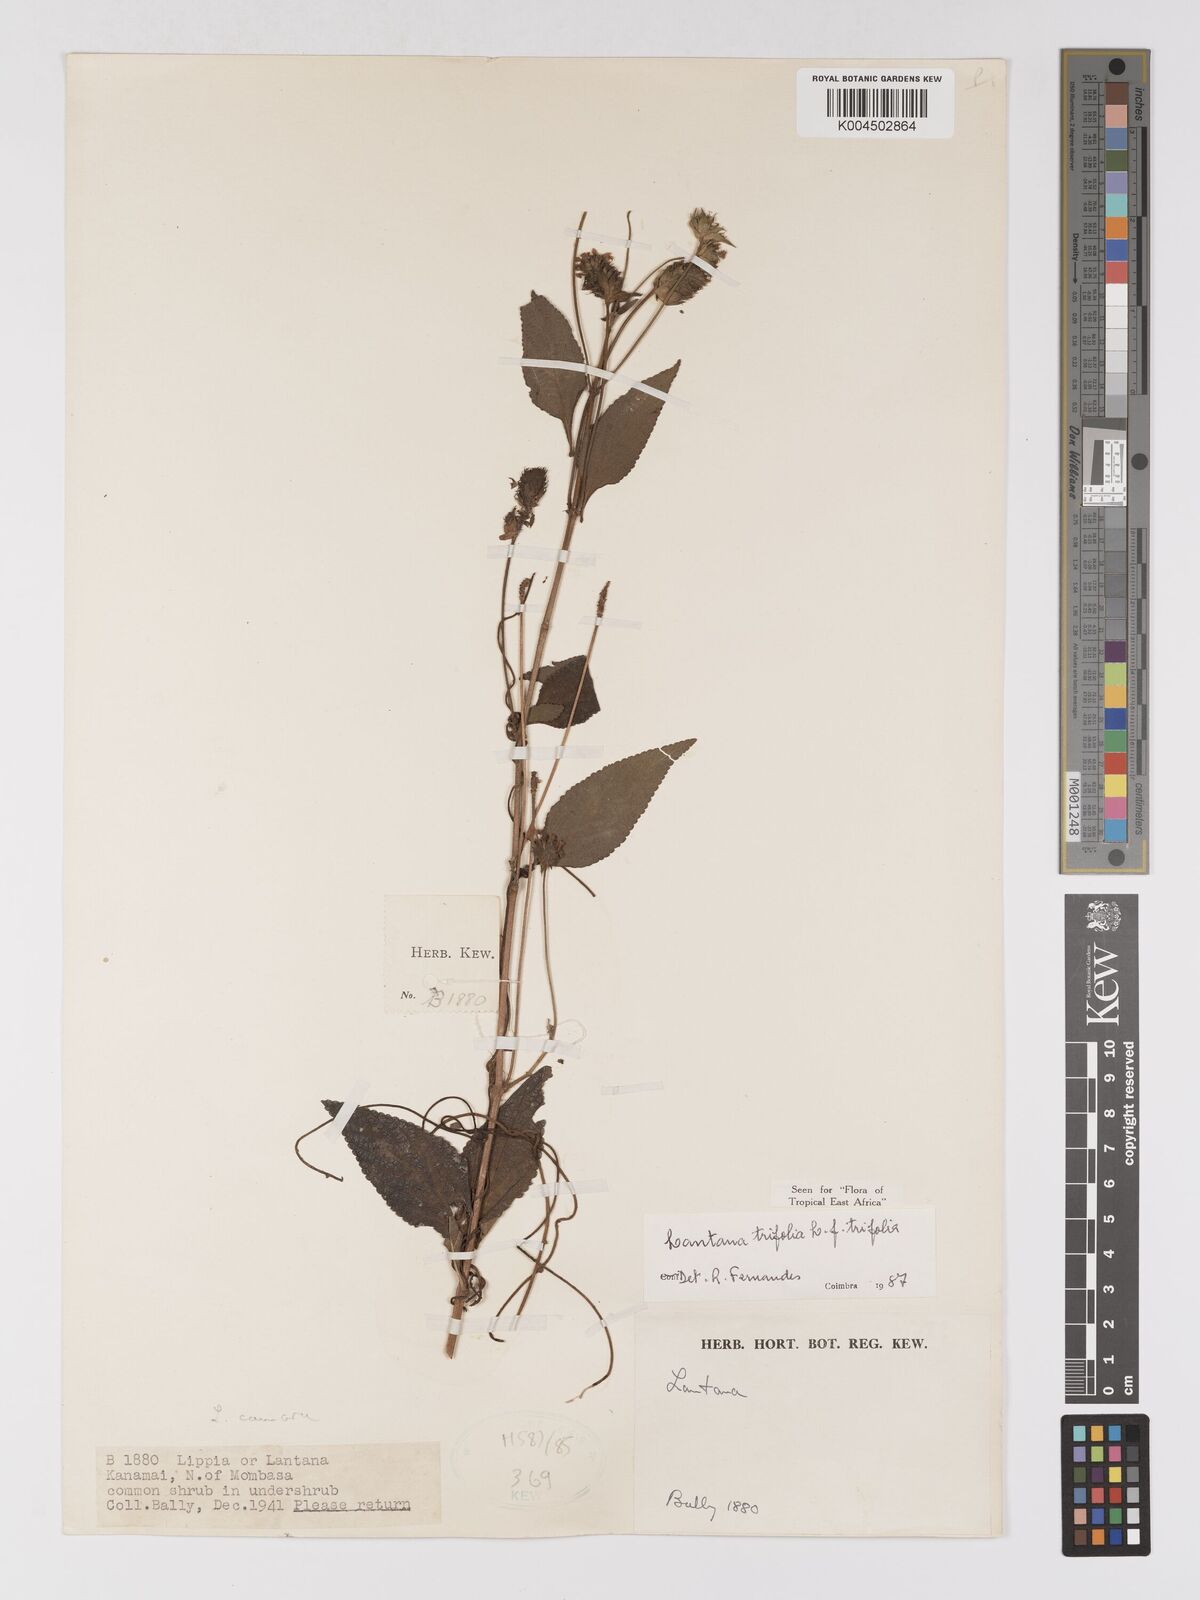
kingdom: Plantae
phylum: Tracheophyta
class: Magnoliopsida
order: Lamiales
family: Verbenaceae
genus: Lantana
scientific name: Lantana trifolia
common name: Sweet-sage
